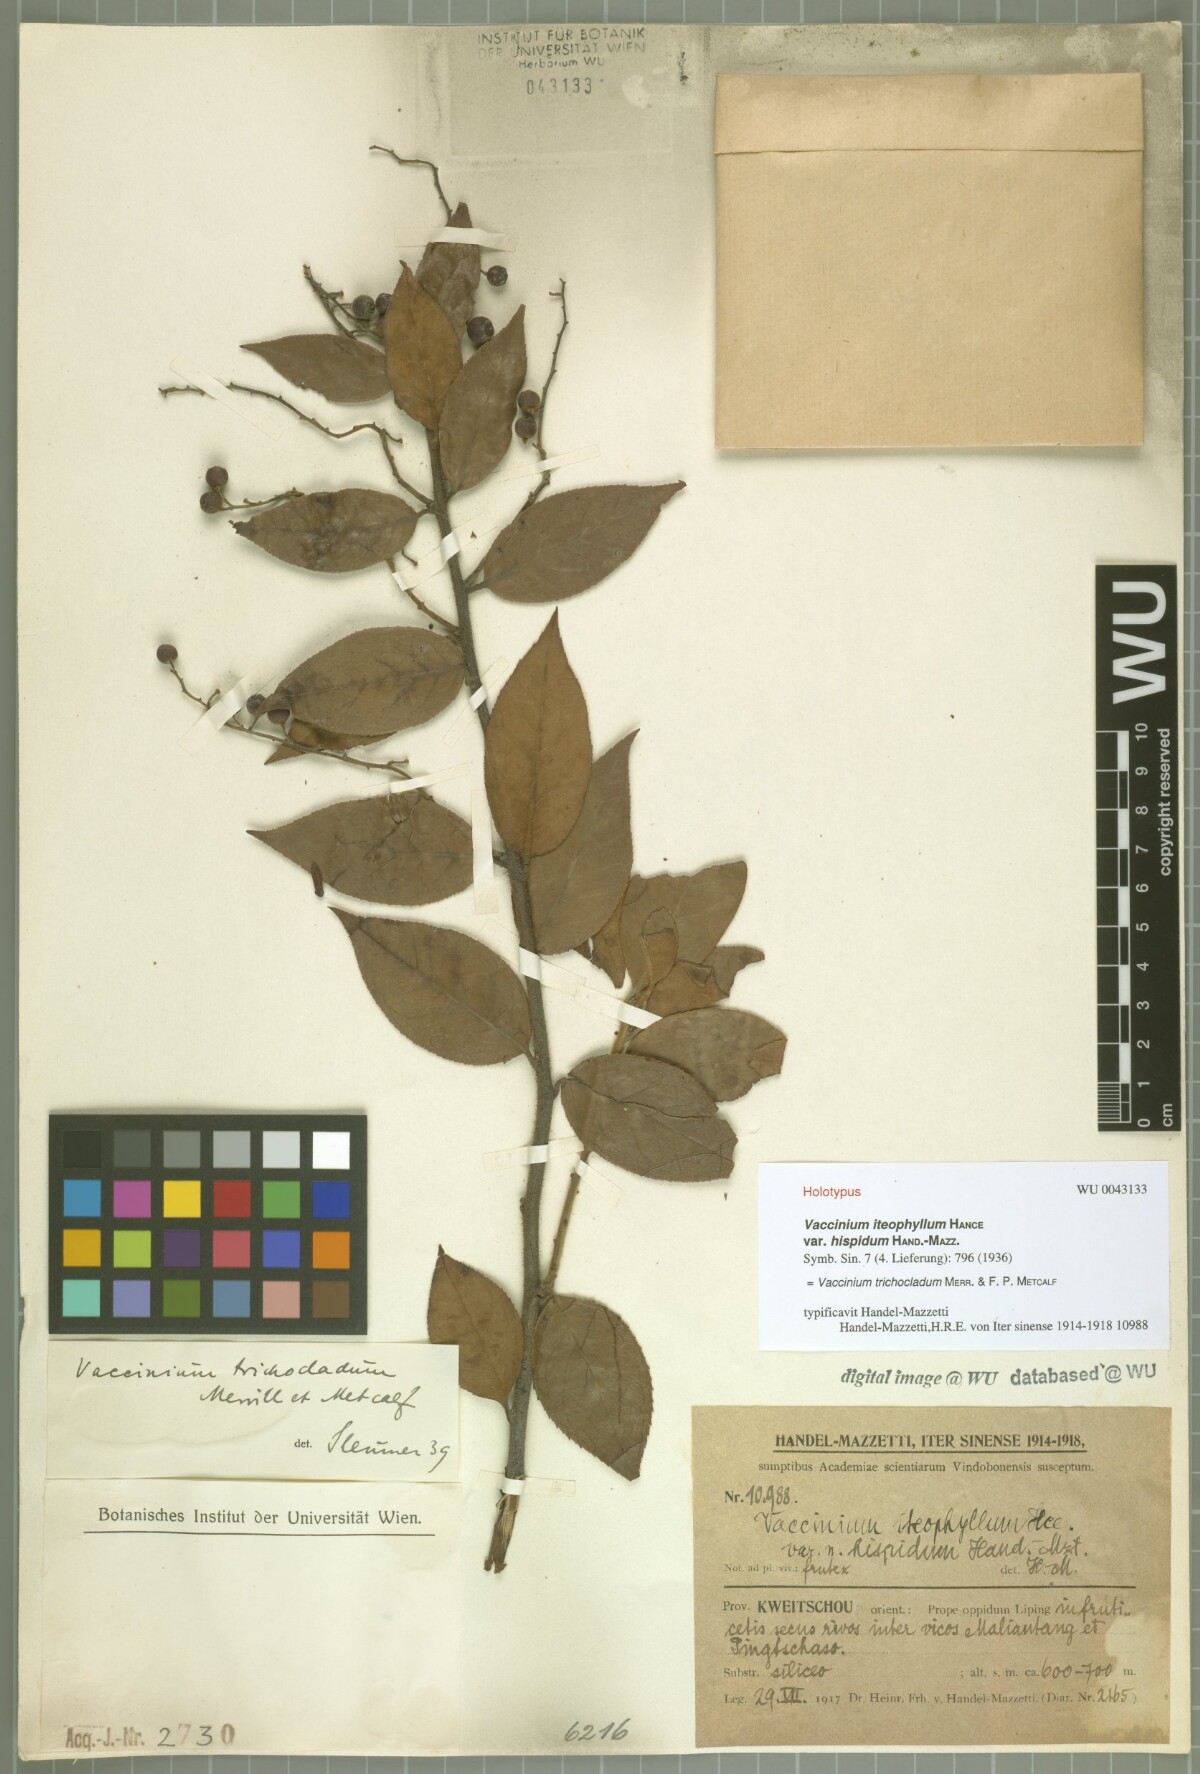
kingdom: Plantae
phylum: Tracheophyta
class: Magnoliopsida
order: Ericales
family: Ericaceae
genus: Vaccinium
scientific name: Vaccinium trichocladum
